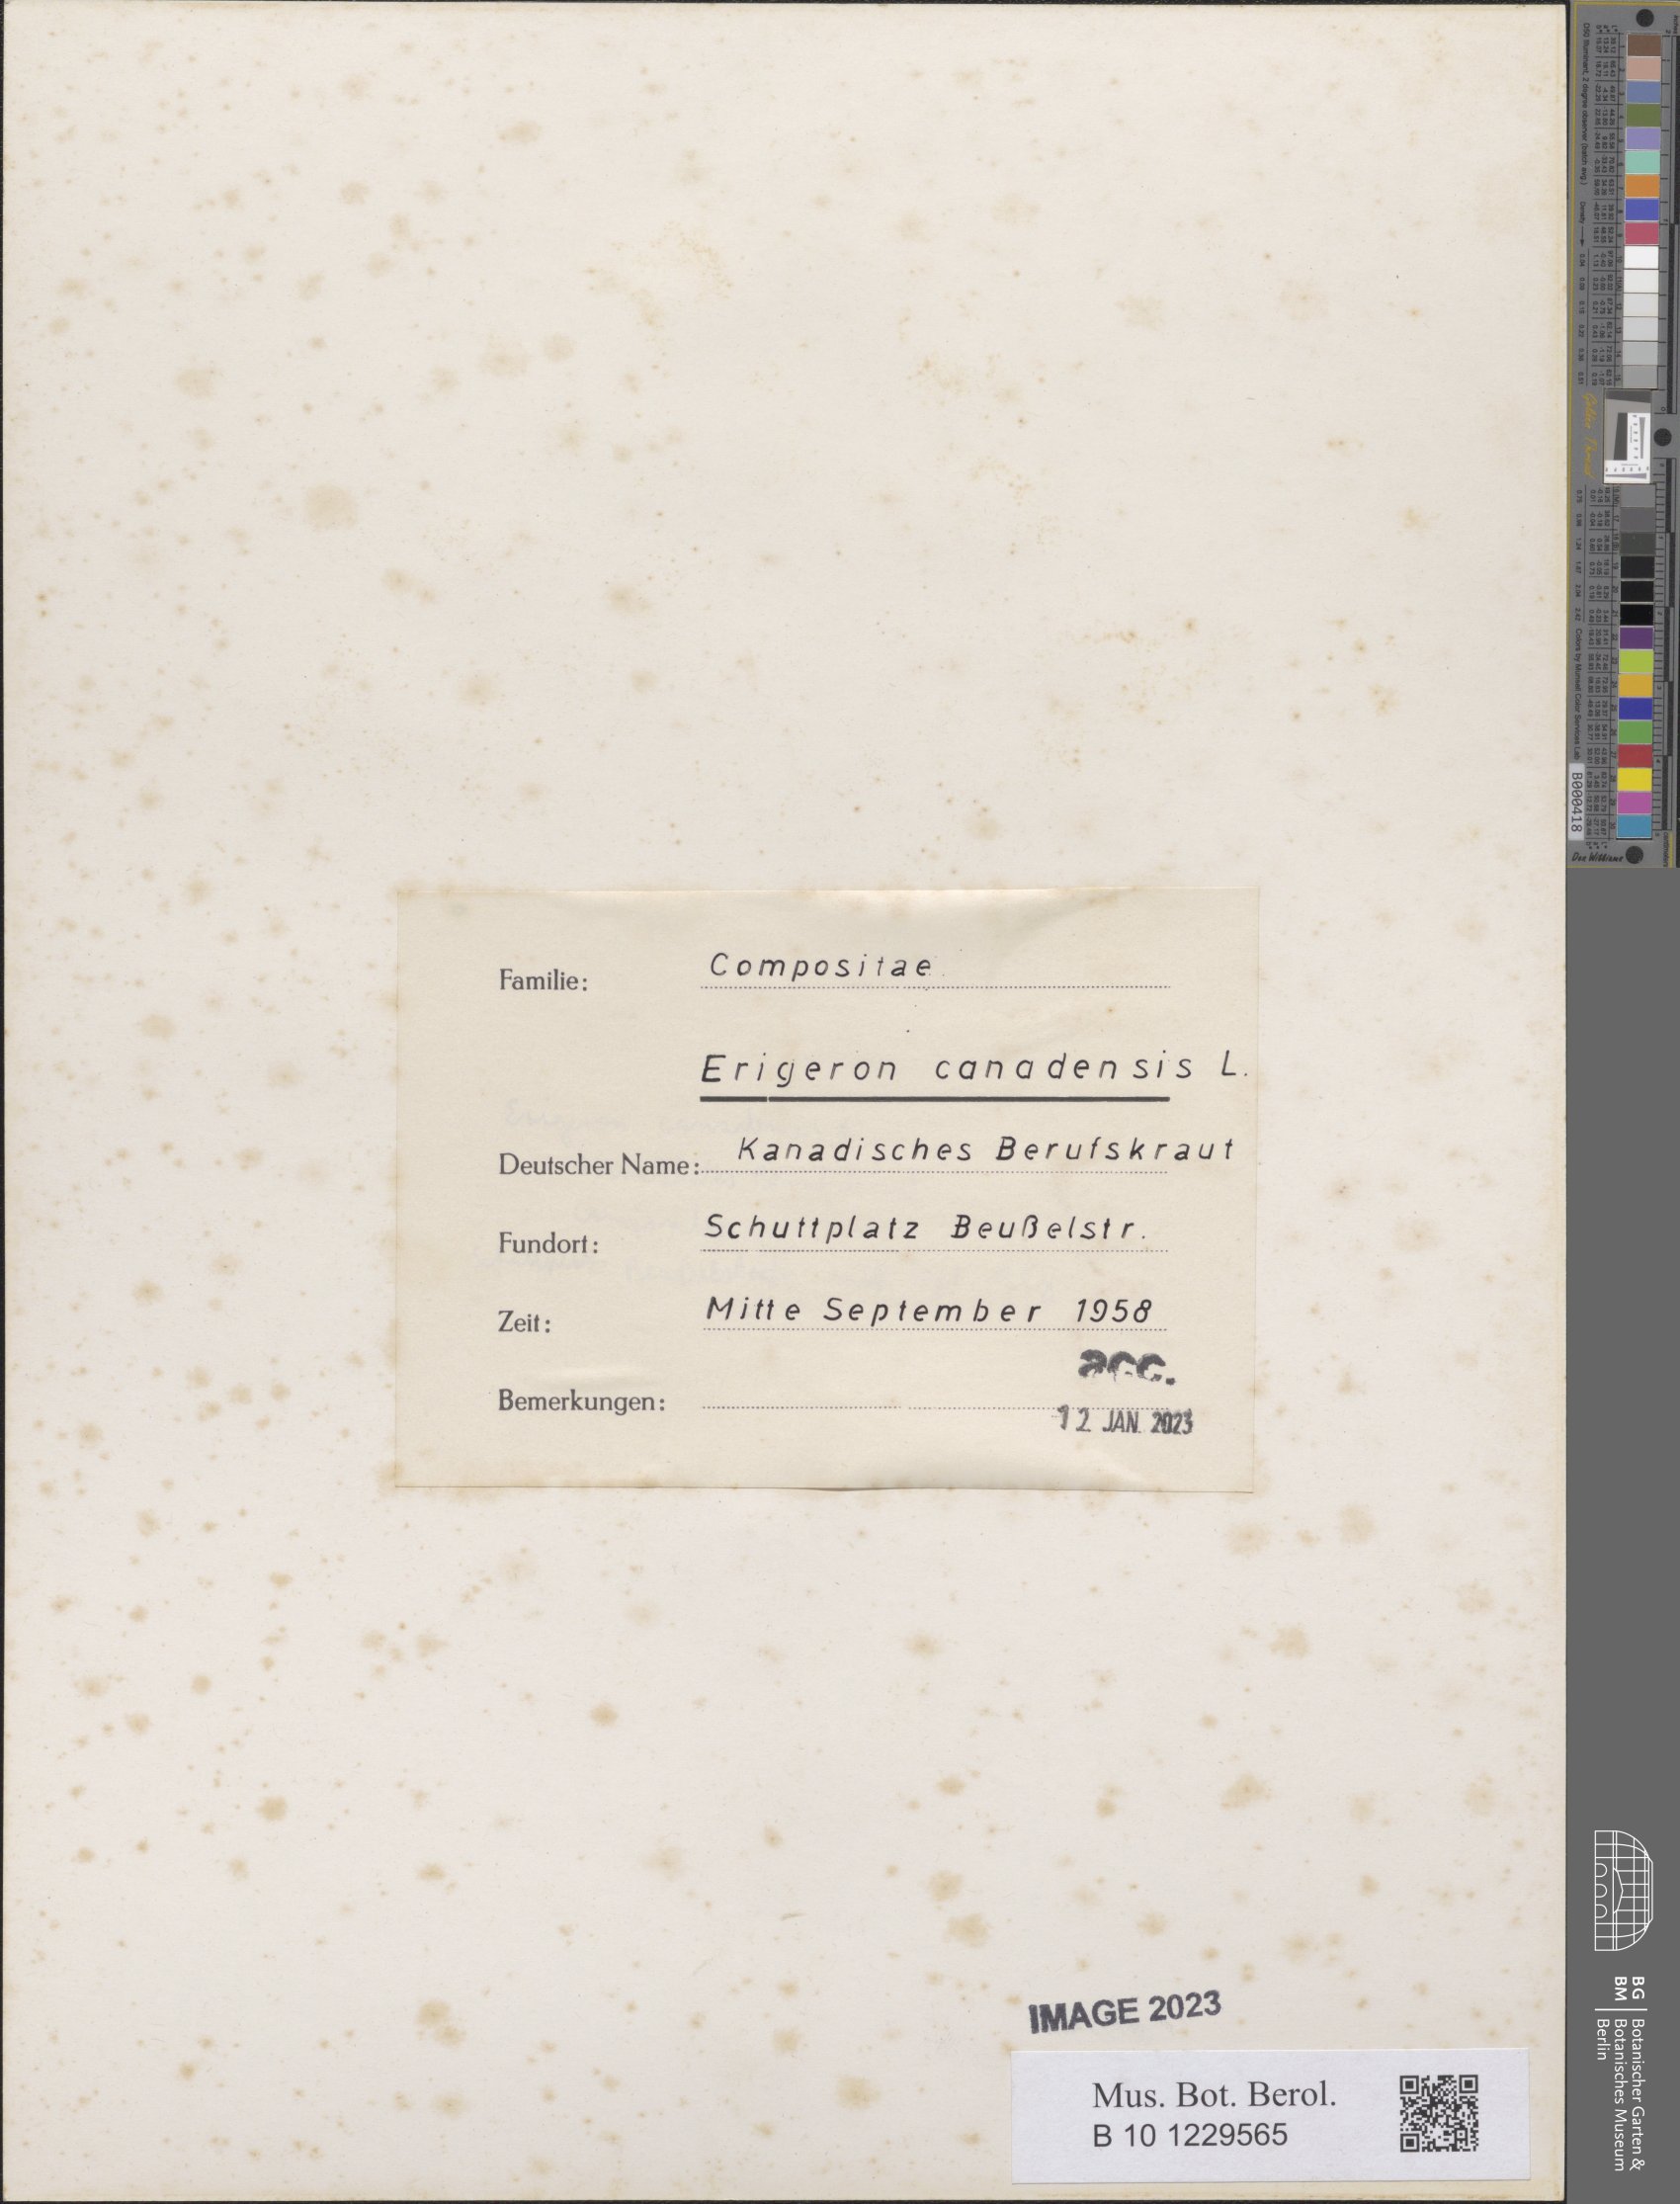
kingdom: Plantae
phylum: Tracheophyta
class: Magnoliopsida
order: Asterales
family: Asteraceae
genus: Erigeron
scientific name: Erigeron canadensis
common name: Canadian fleabane
